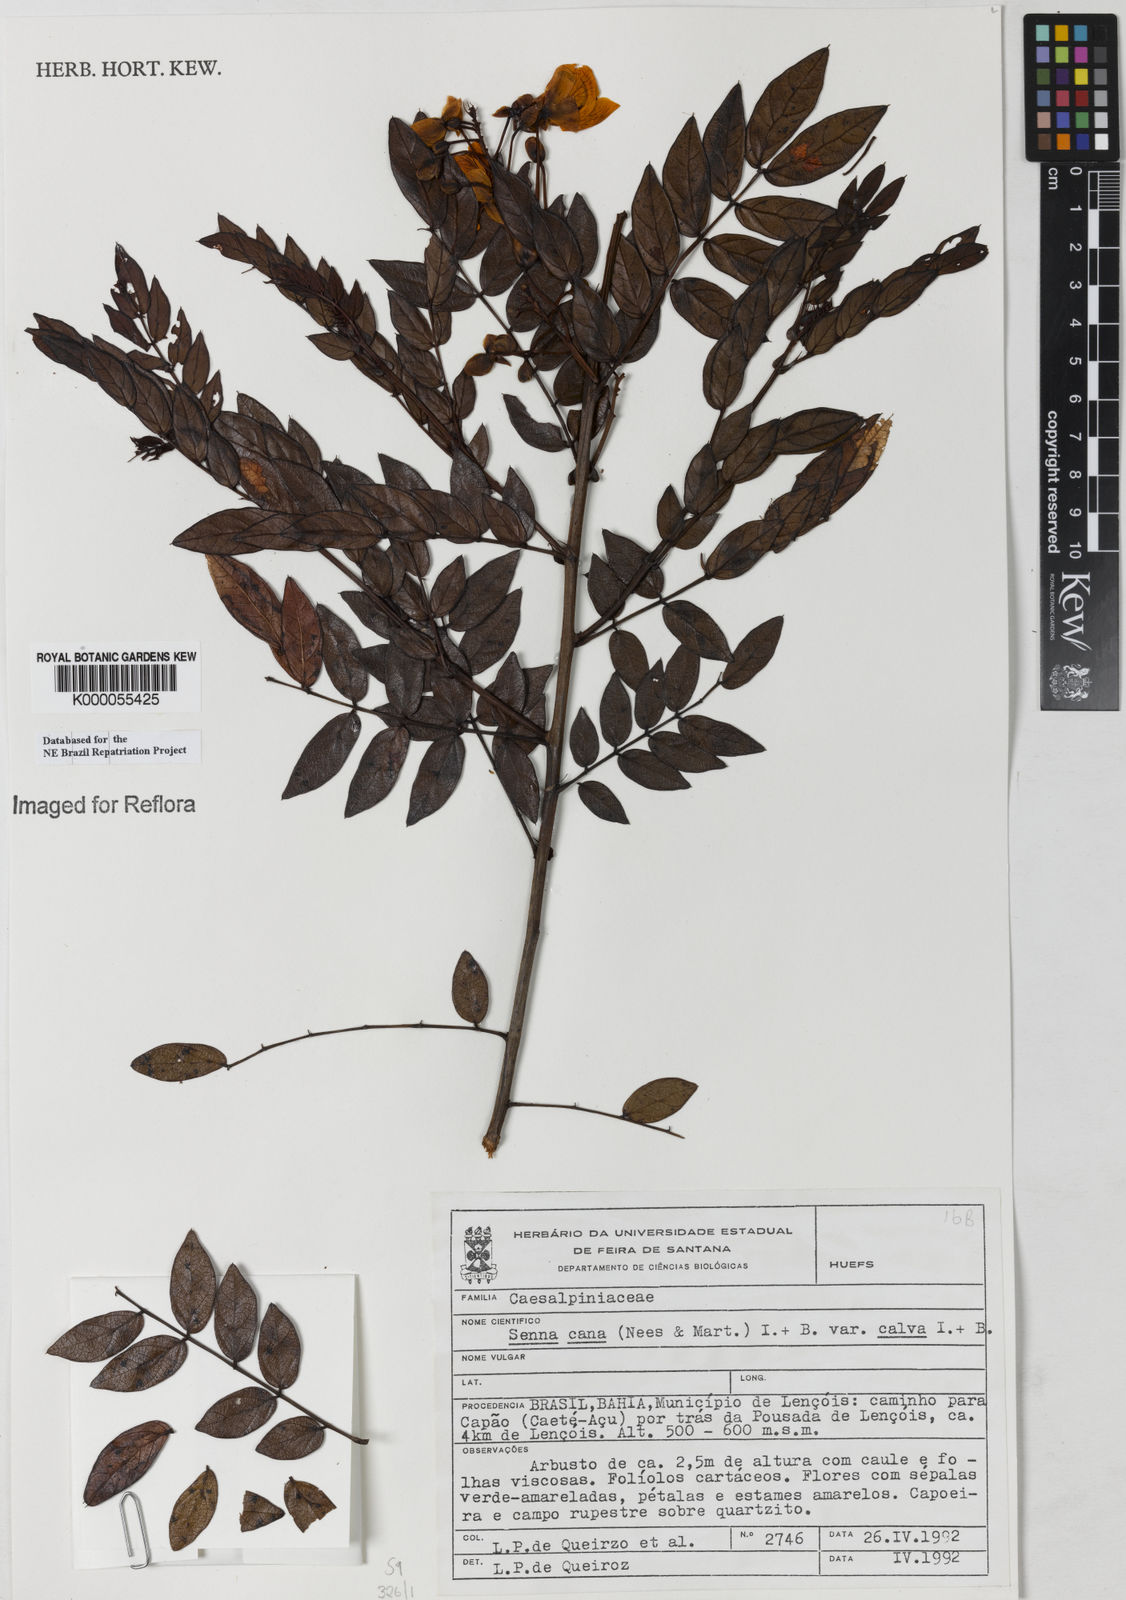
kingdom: Plantae
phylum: Tracheophyta
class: Magnoliopsida
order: Fabales
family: Fabaceae
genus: Senna
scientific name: Senna cana
